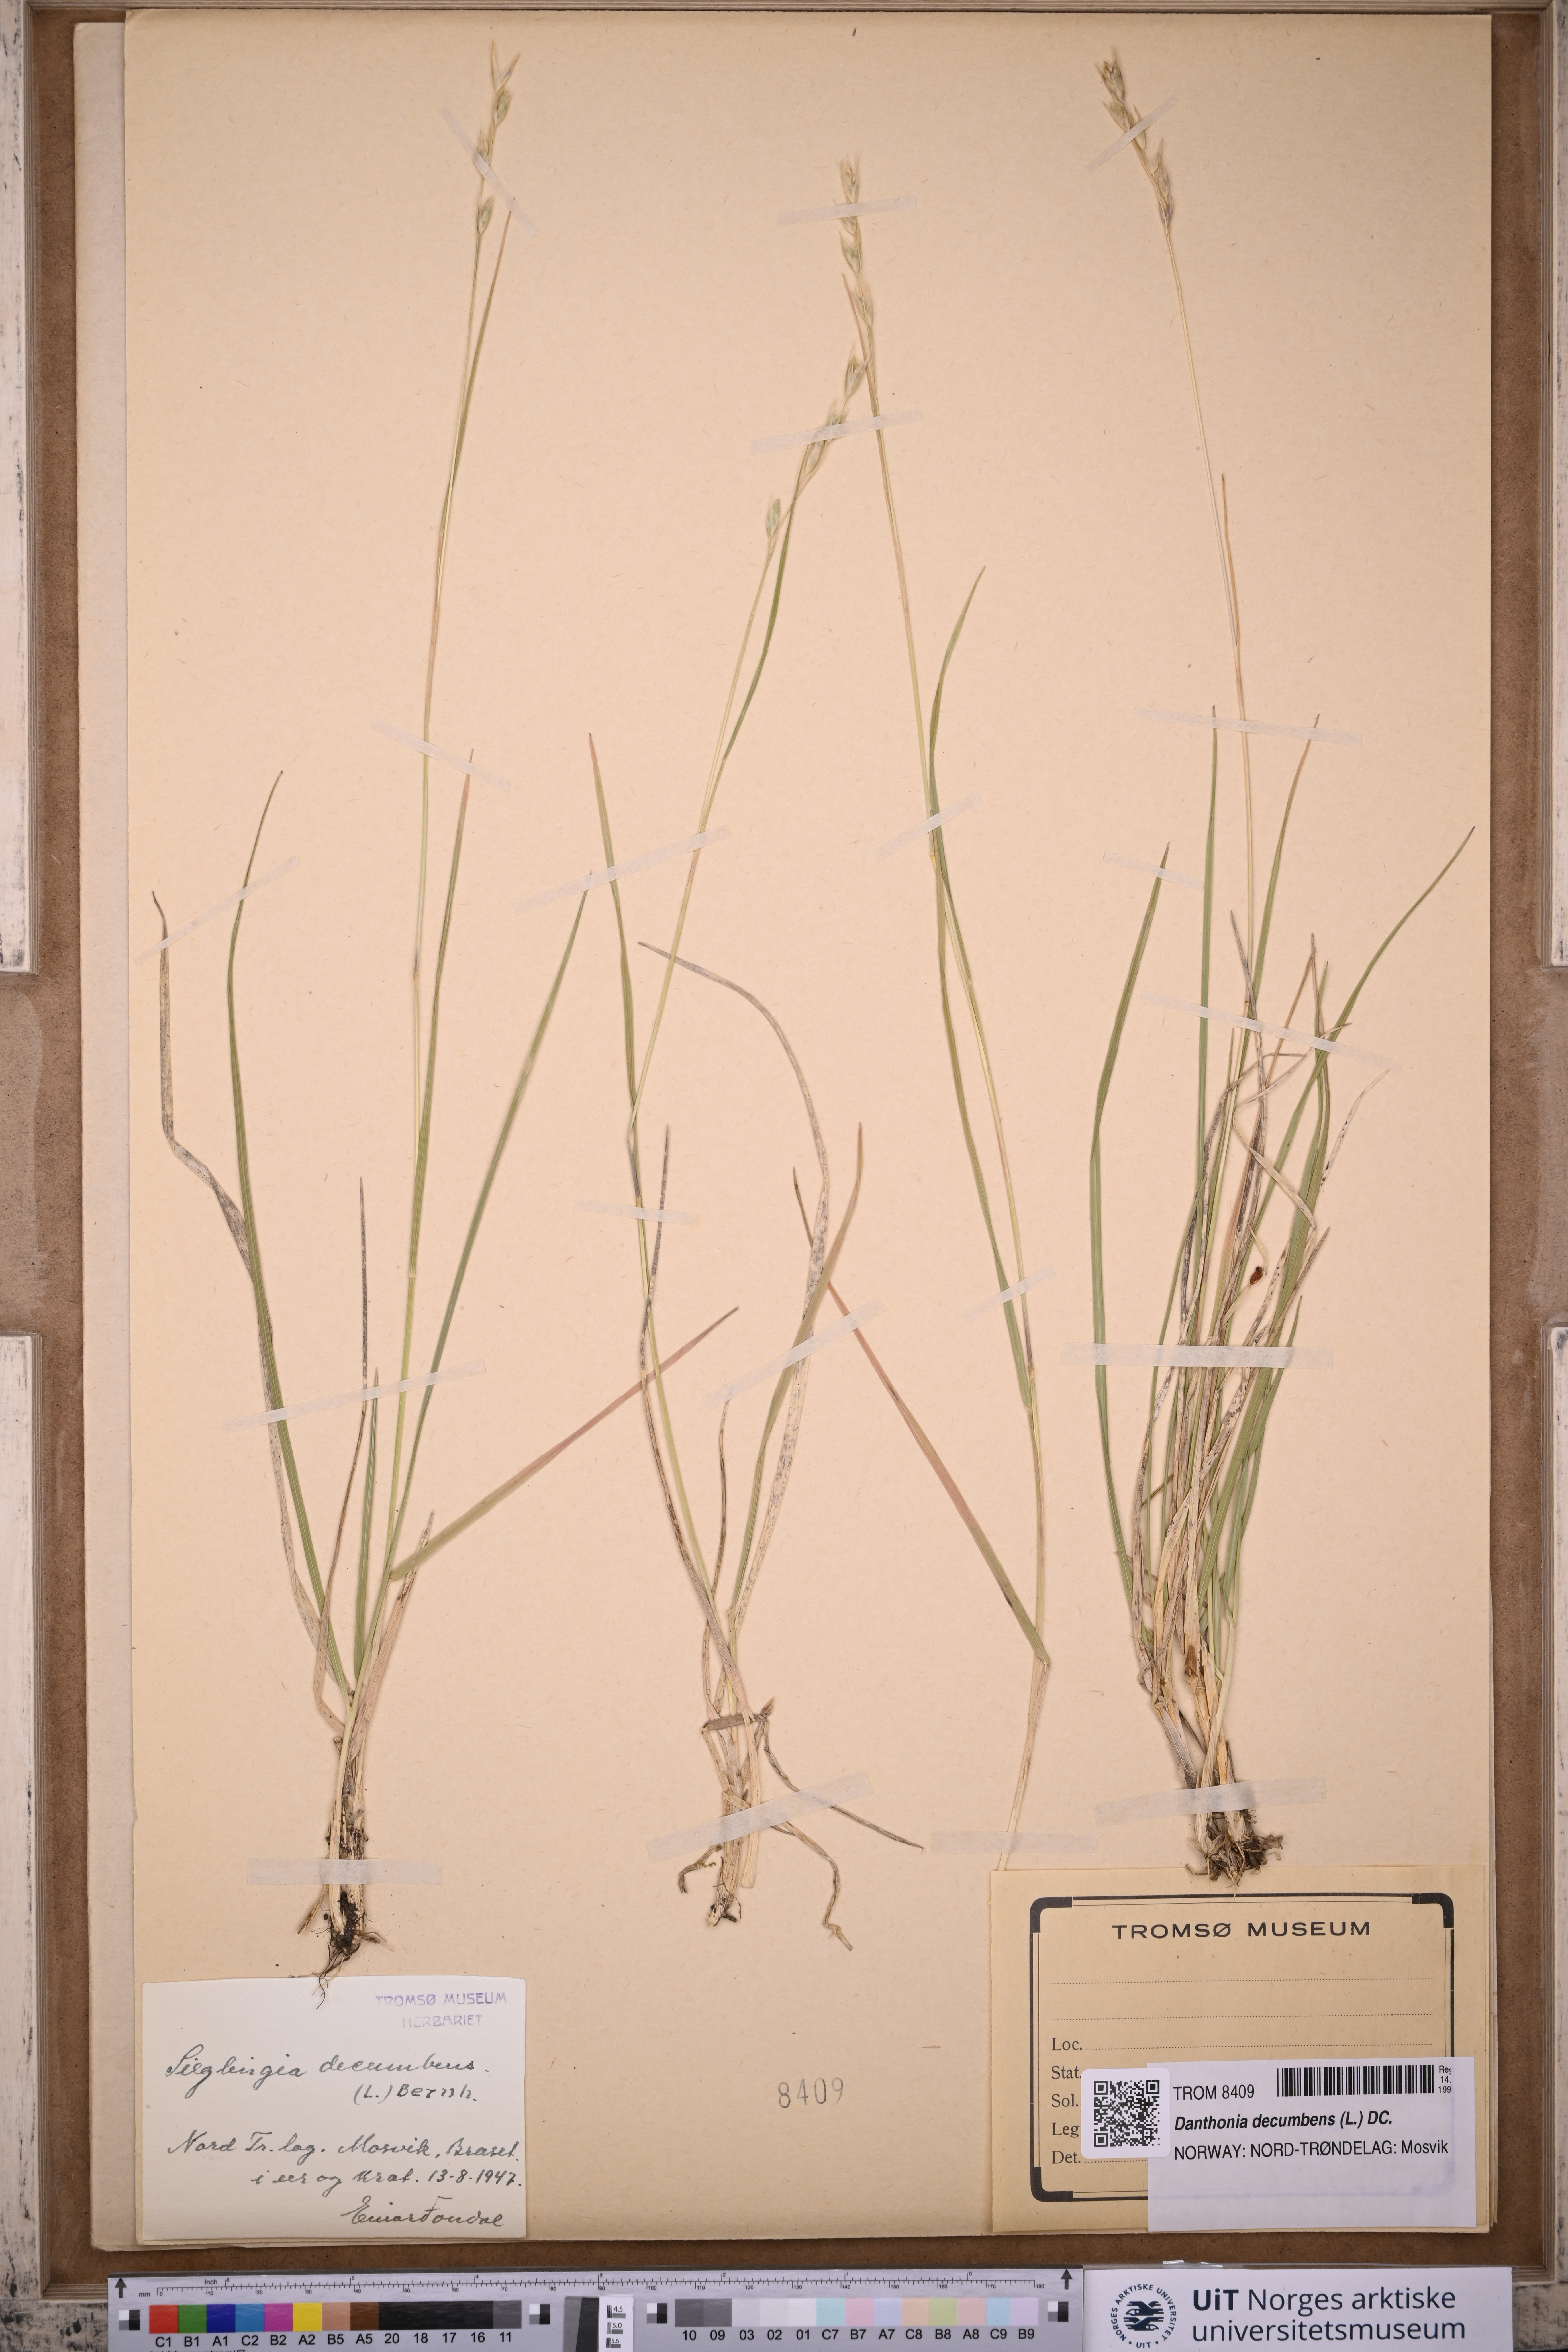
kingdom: Plantae
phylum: Tracheophyta
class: Liliopsida
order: Poales
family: Poaceae
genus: Danthonia
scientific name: Danthonia decumbens
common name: Common heathgrass
